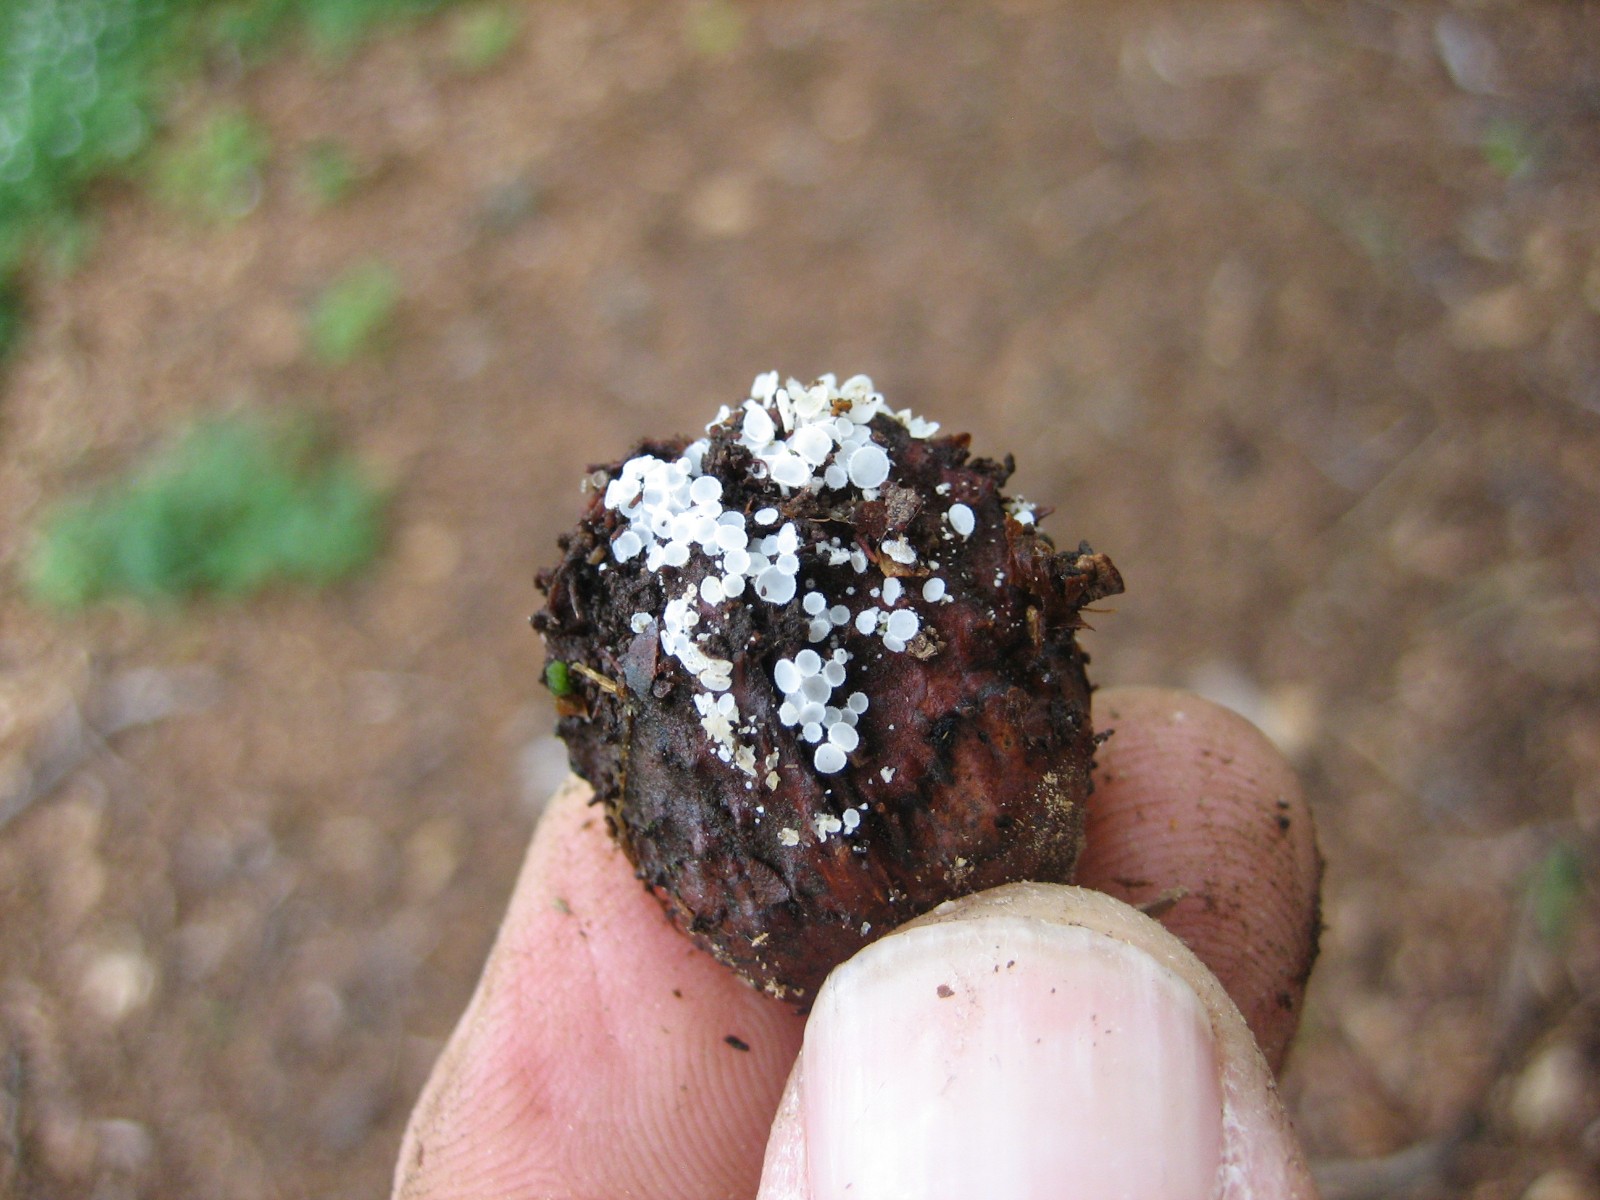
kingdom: Fungi
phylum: Ascomycota
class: Leotiomycetes
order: Helotiales
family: Lachnaceae
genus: Lachnum
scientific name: Lachnum virgineum
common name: jomfru-frynseskive
